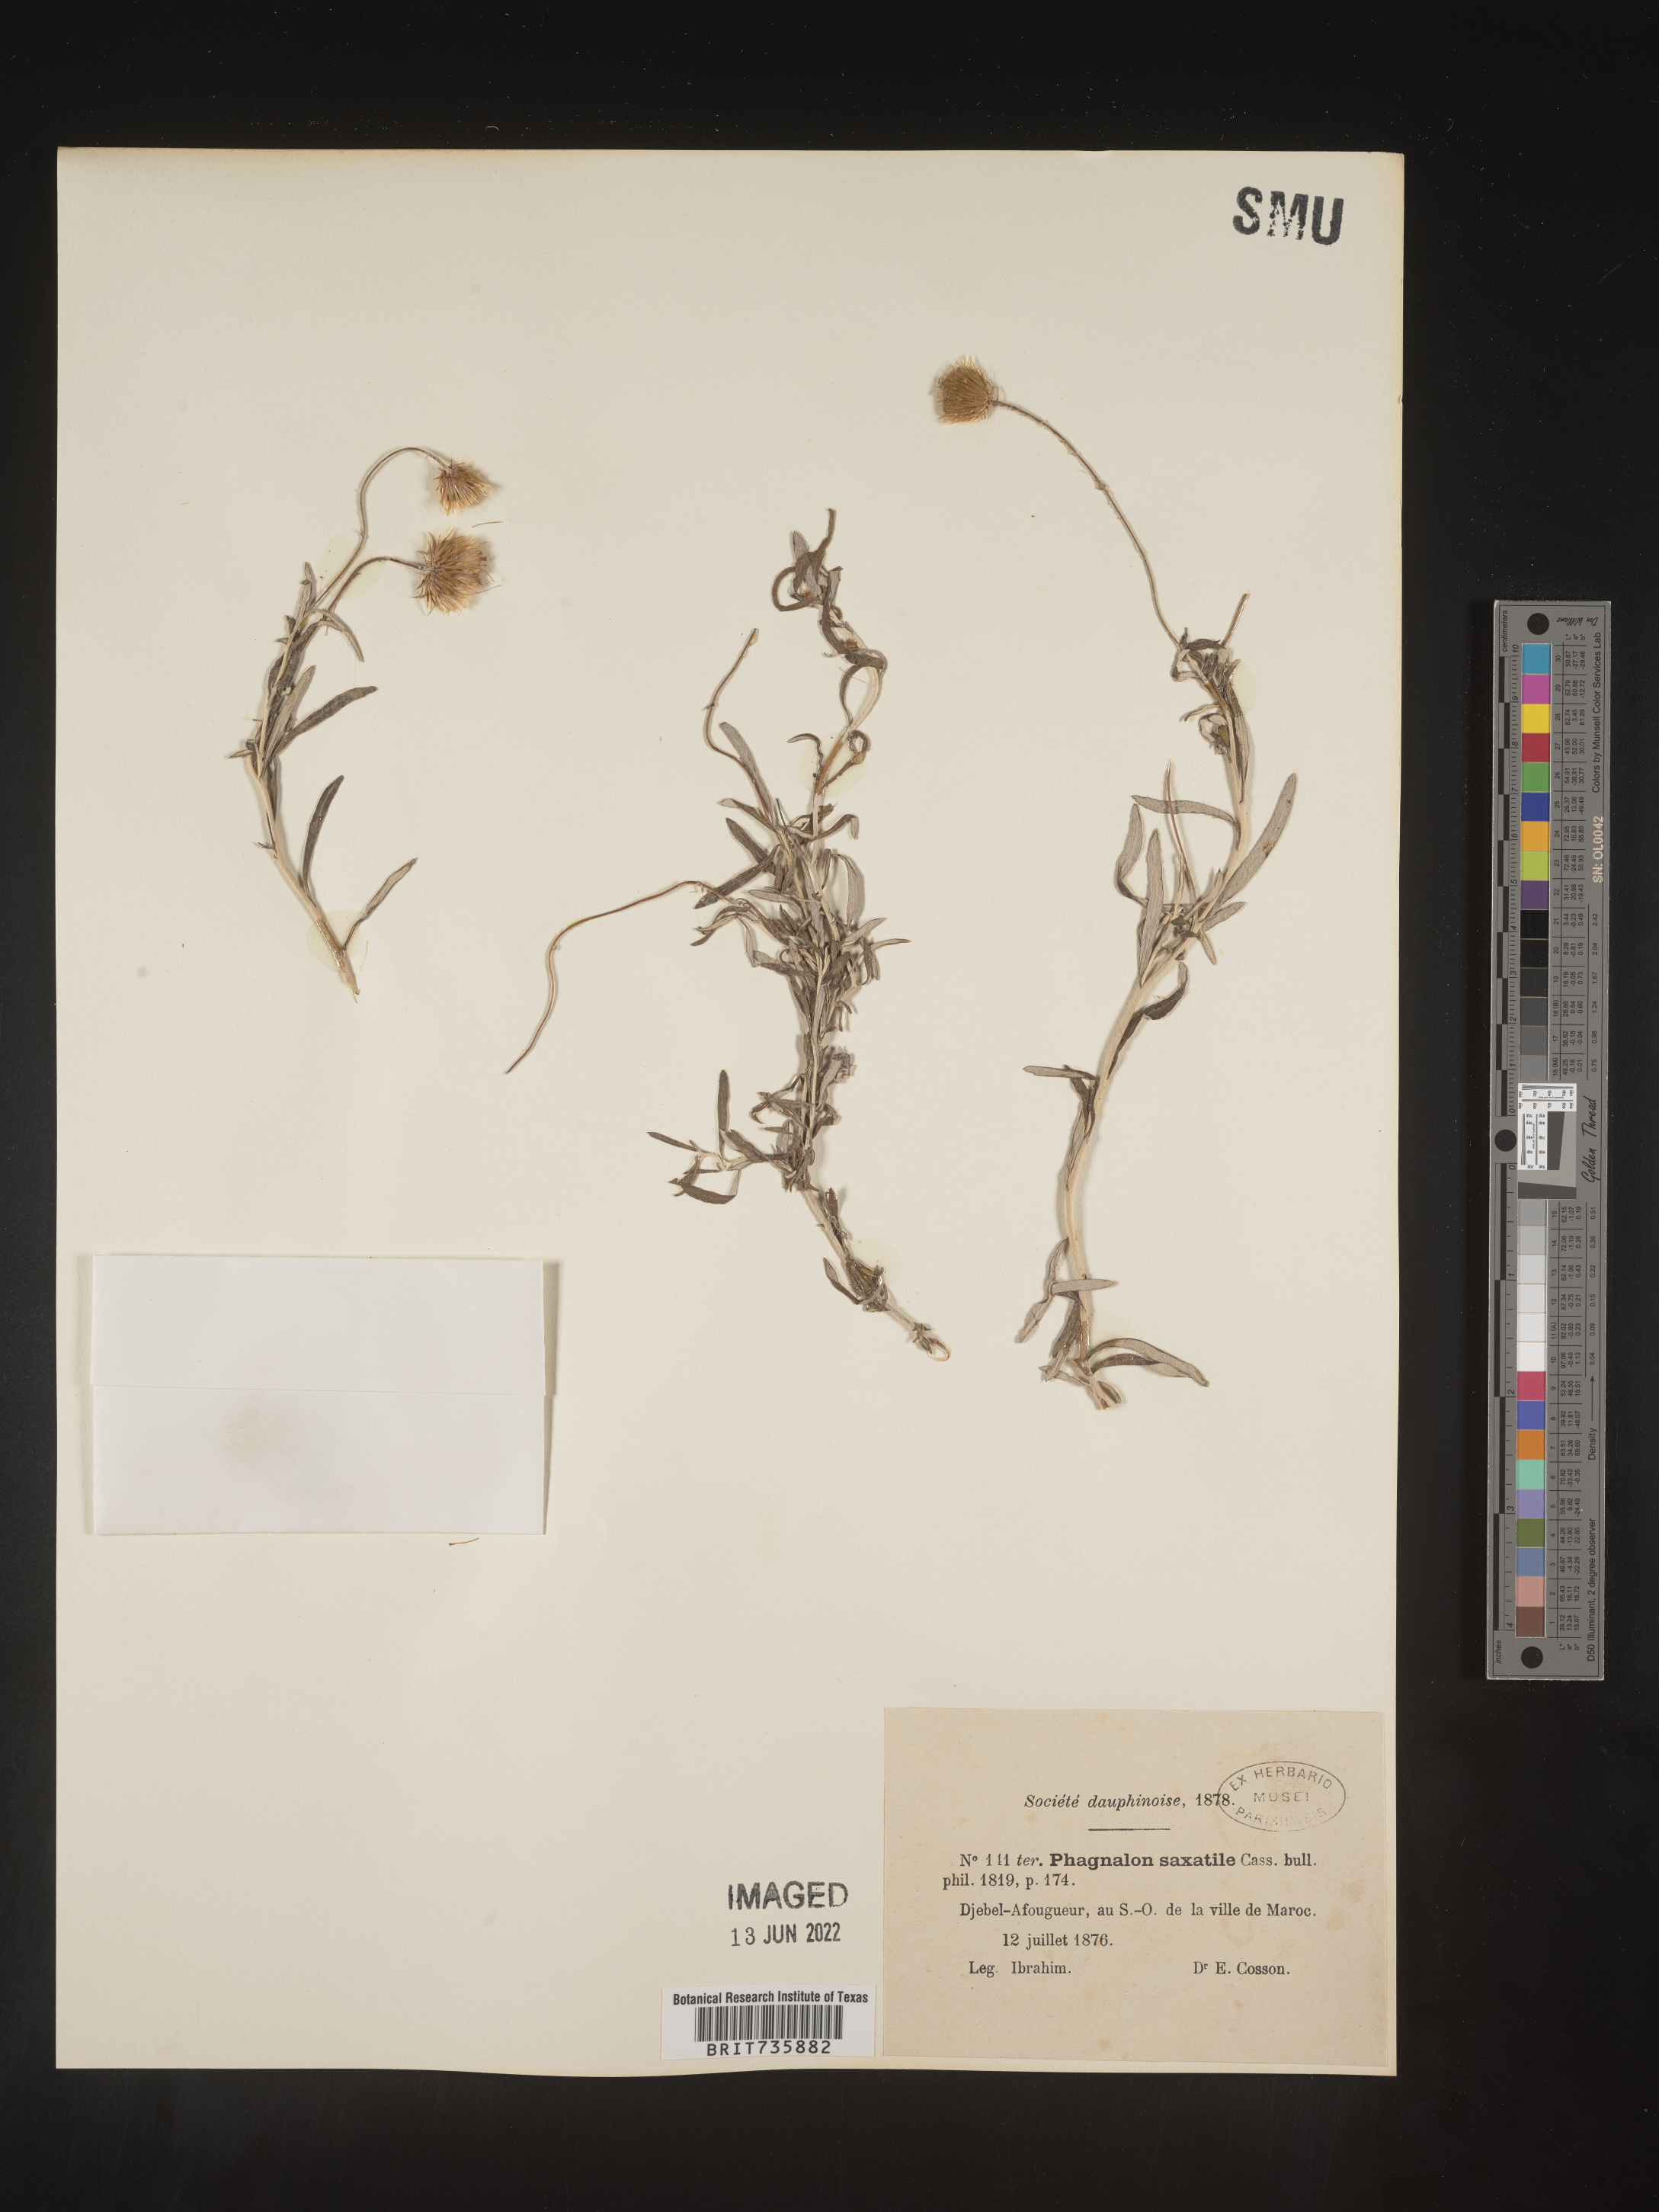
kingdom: Plantae
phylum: Tracheophyta
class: Magnoliopsida
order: Asterales
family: Asteraceae
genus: Phagnalon
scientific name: Phagnalon
